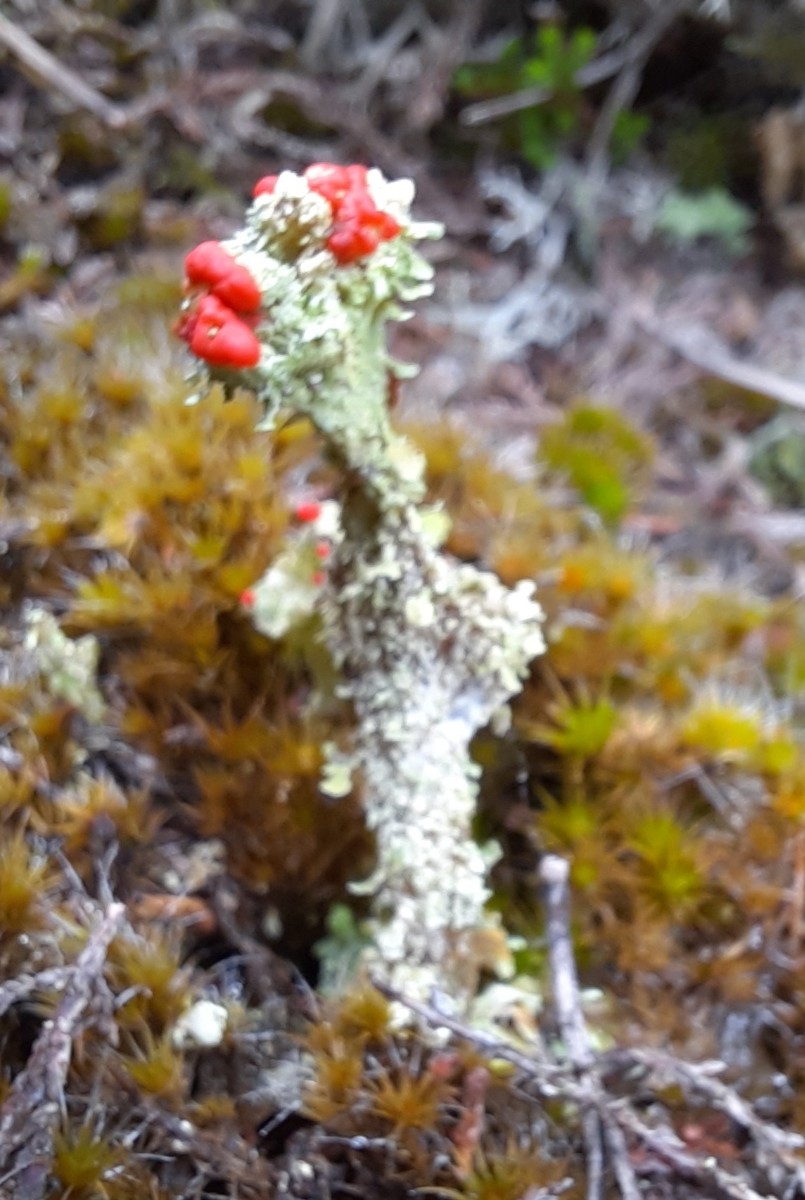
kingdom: Fungi
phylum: Ascomycota
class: Lecanoromycetes
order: Lecanorales
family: Cladoniaceae
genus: Cladonia
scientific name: Cladonia floerkeana
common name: lakrød bægerlav
